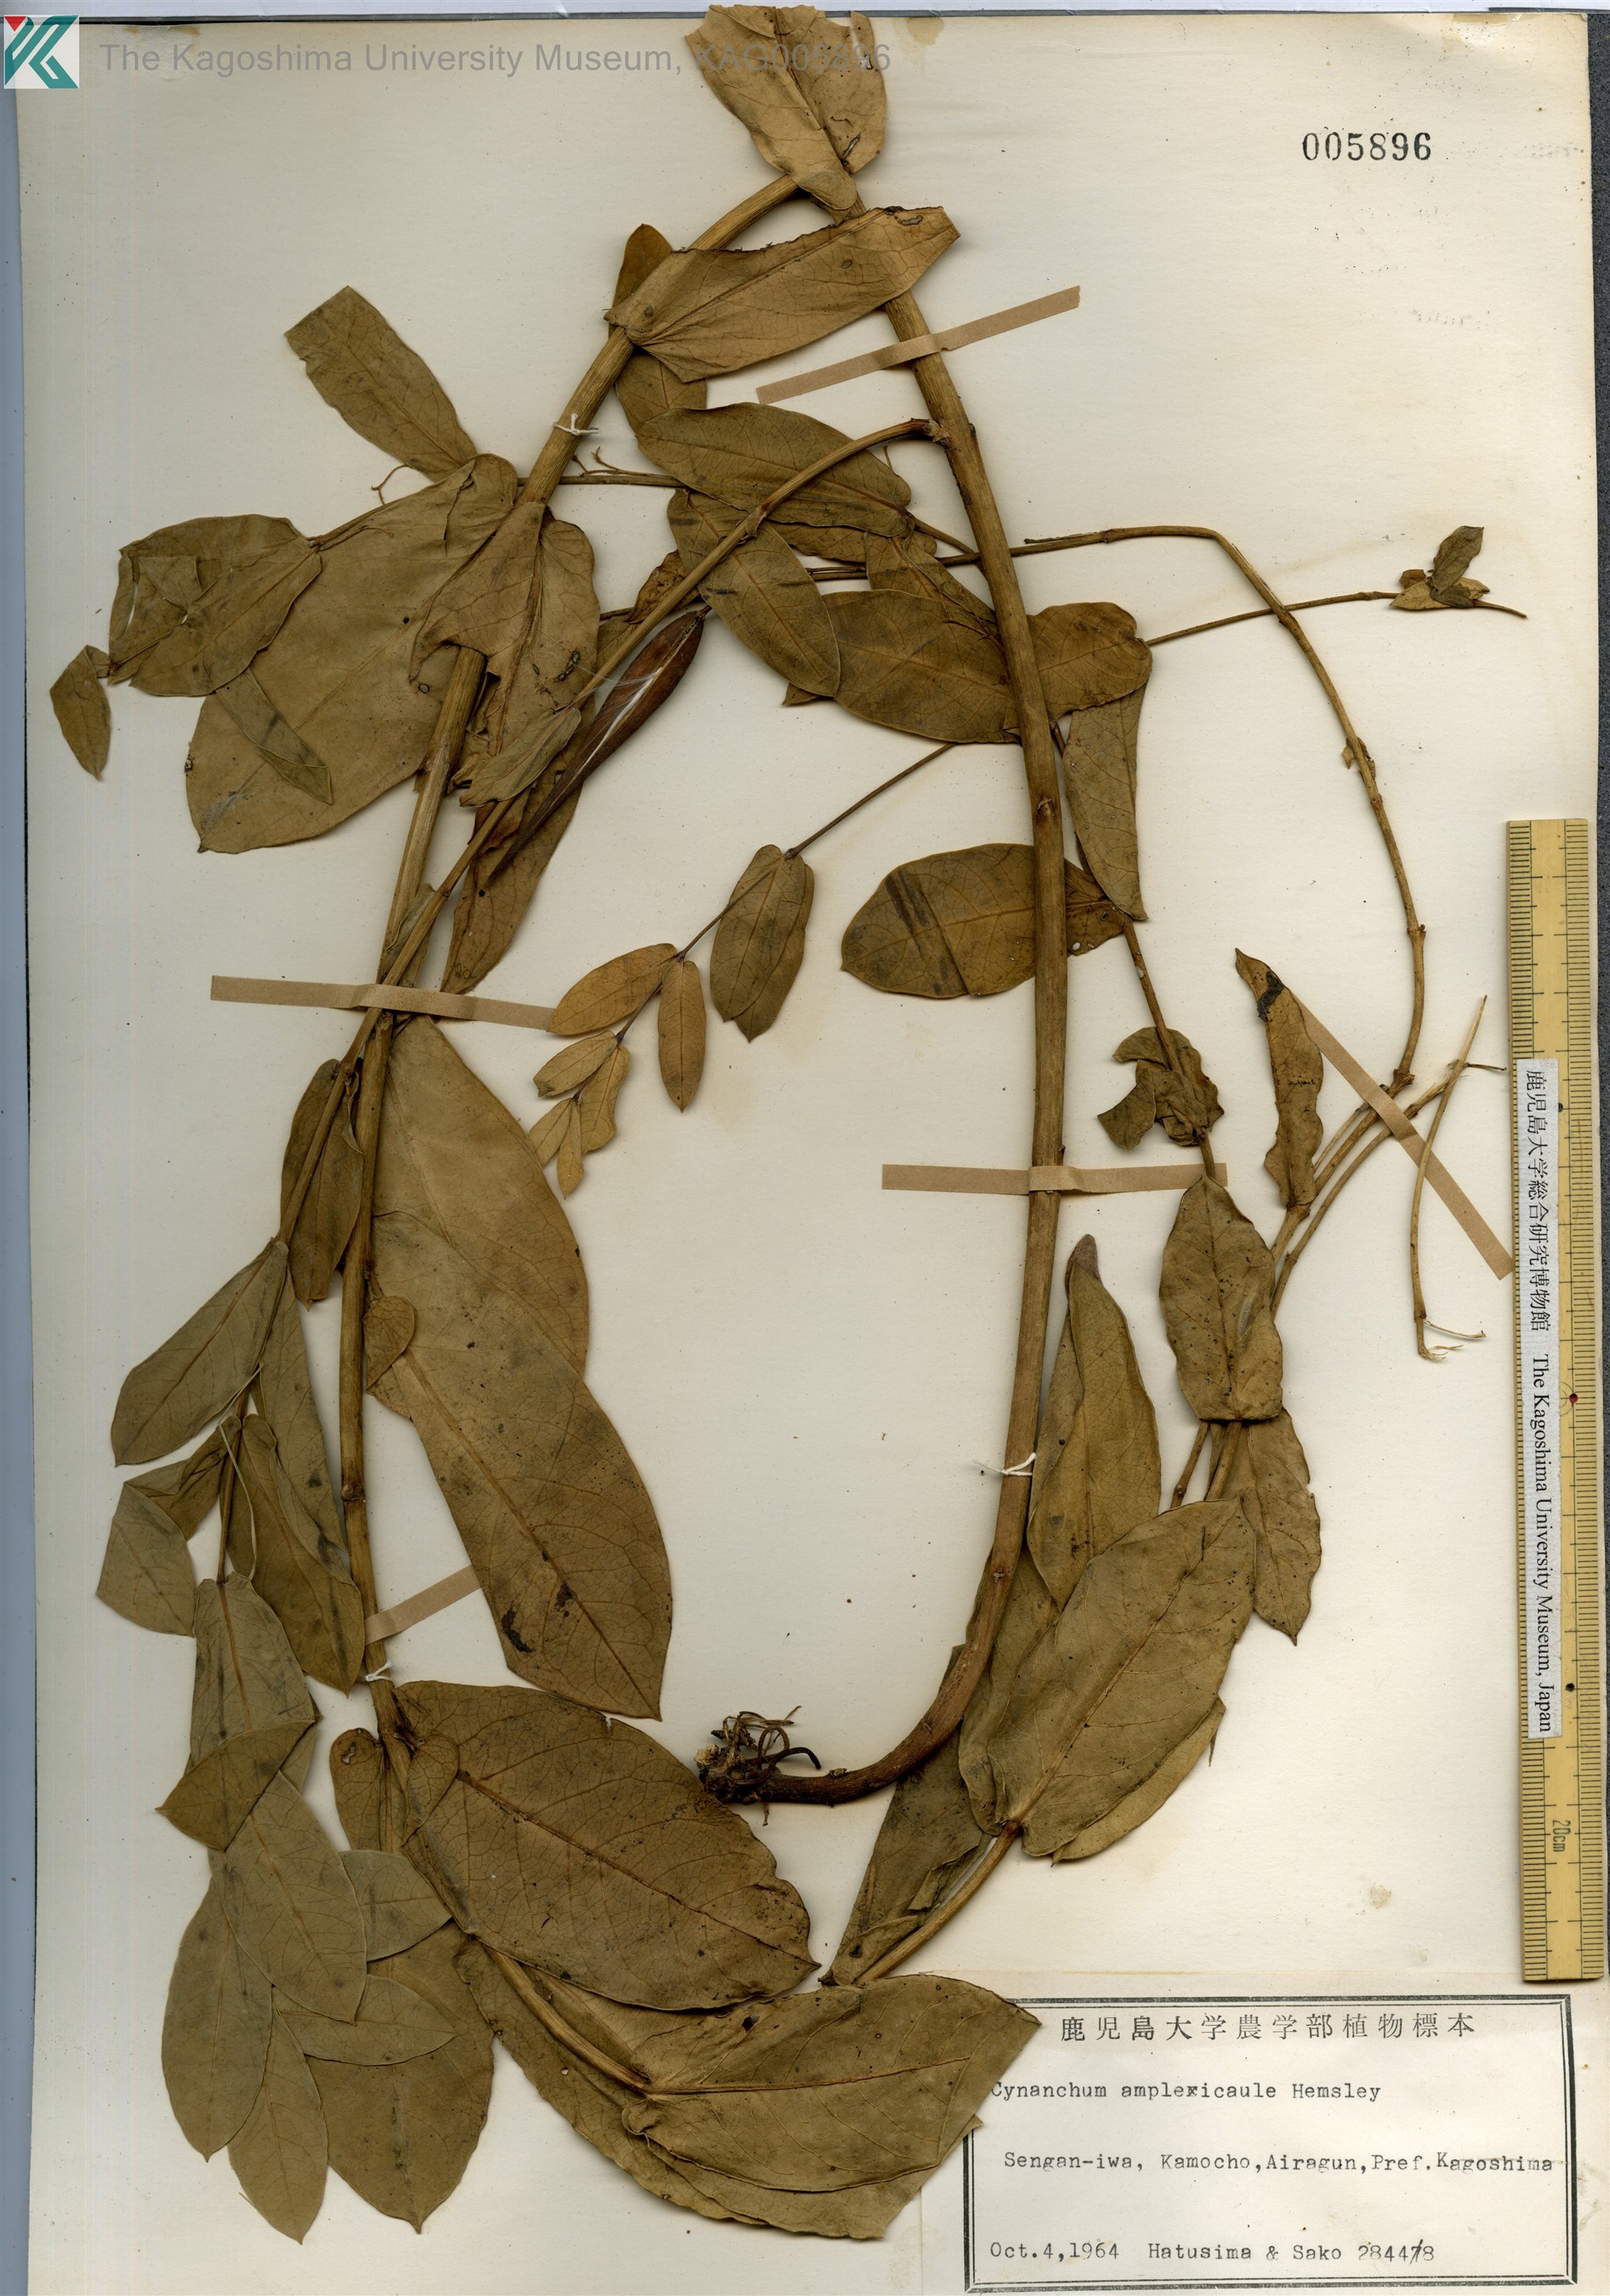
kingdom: Plantae
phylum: Tracheophyta
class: Magnoliopsida
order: Gentianales
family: Apocynaceae
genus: Vincetoxicum
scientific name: Vincetoxicum amplexicaule
